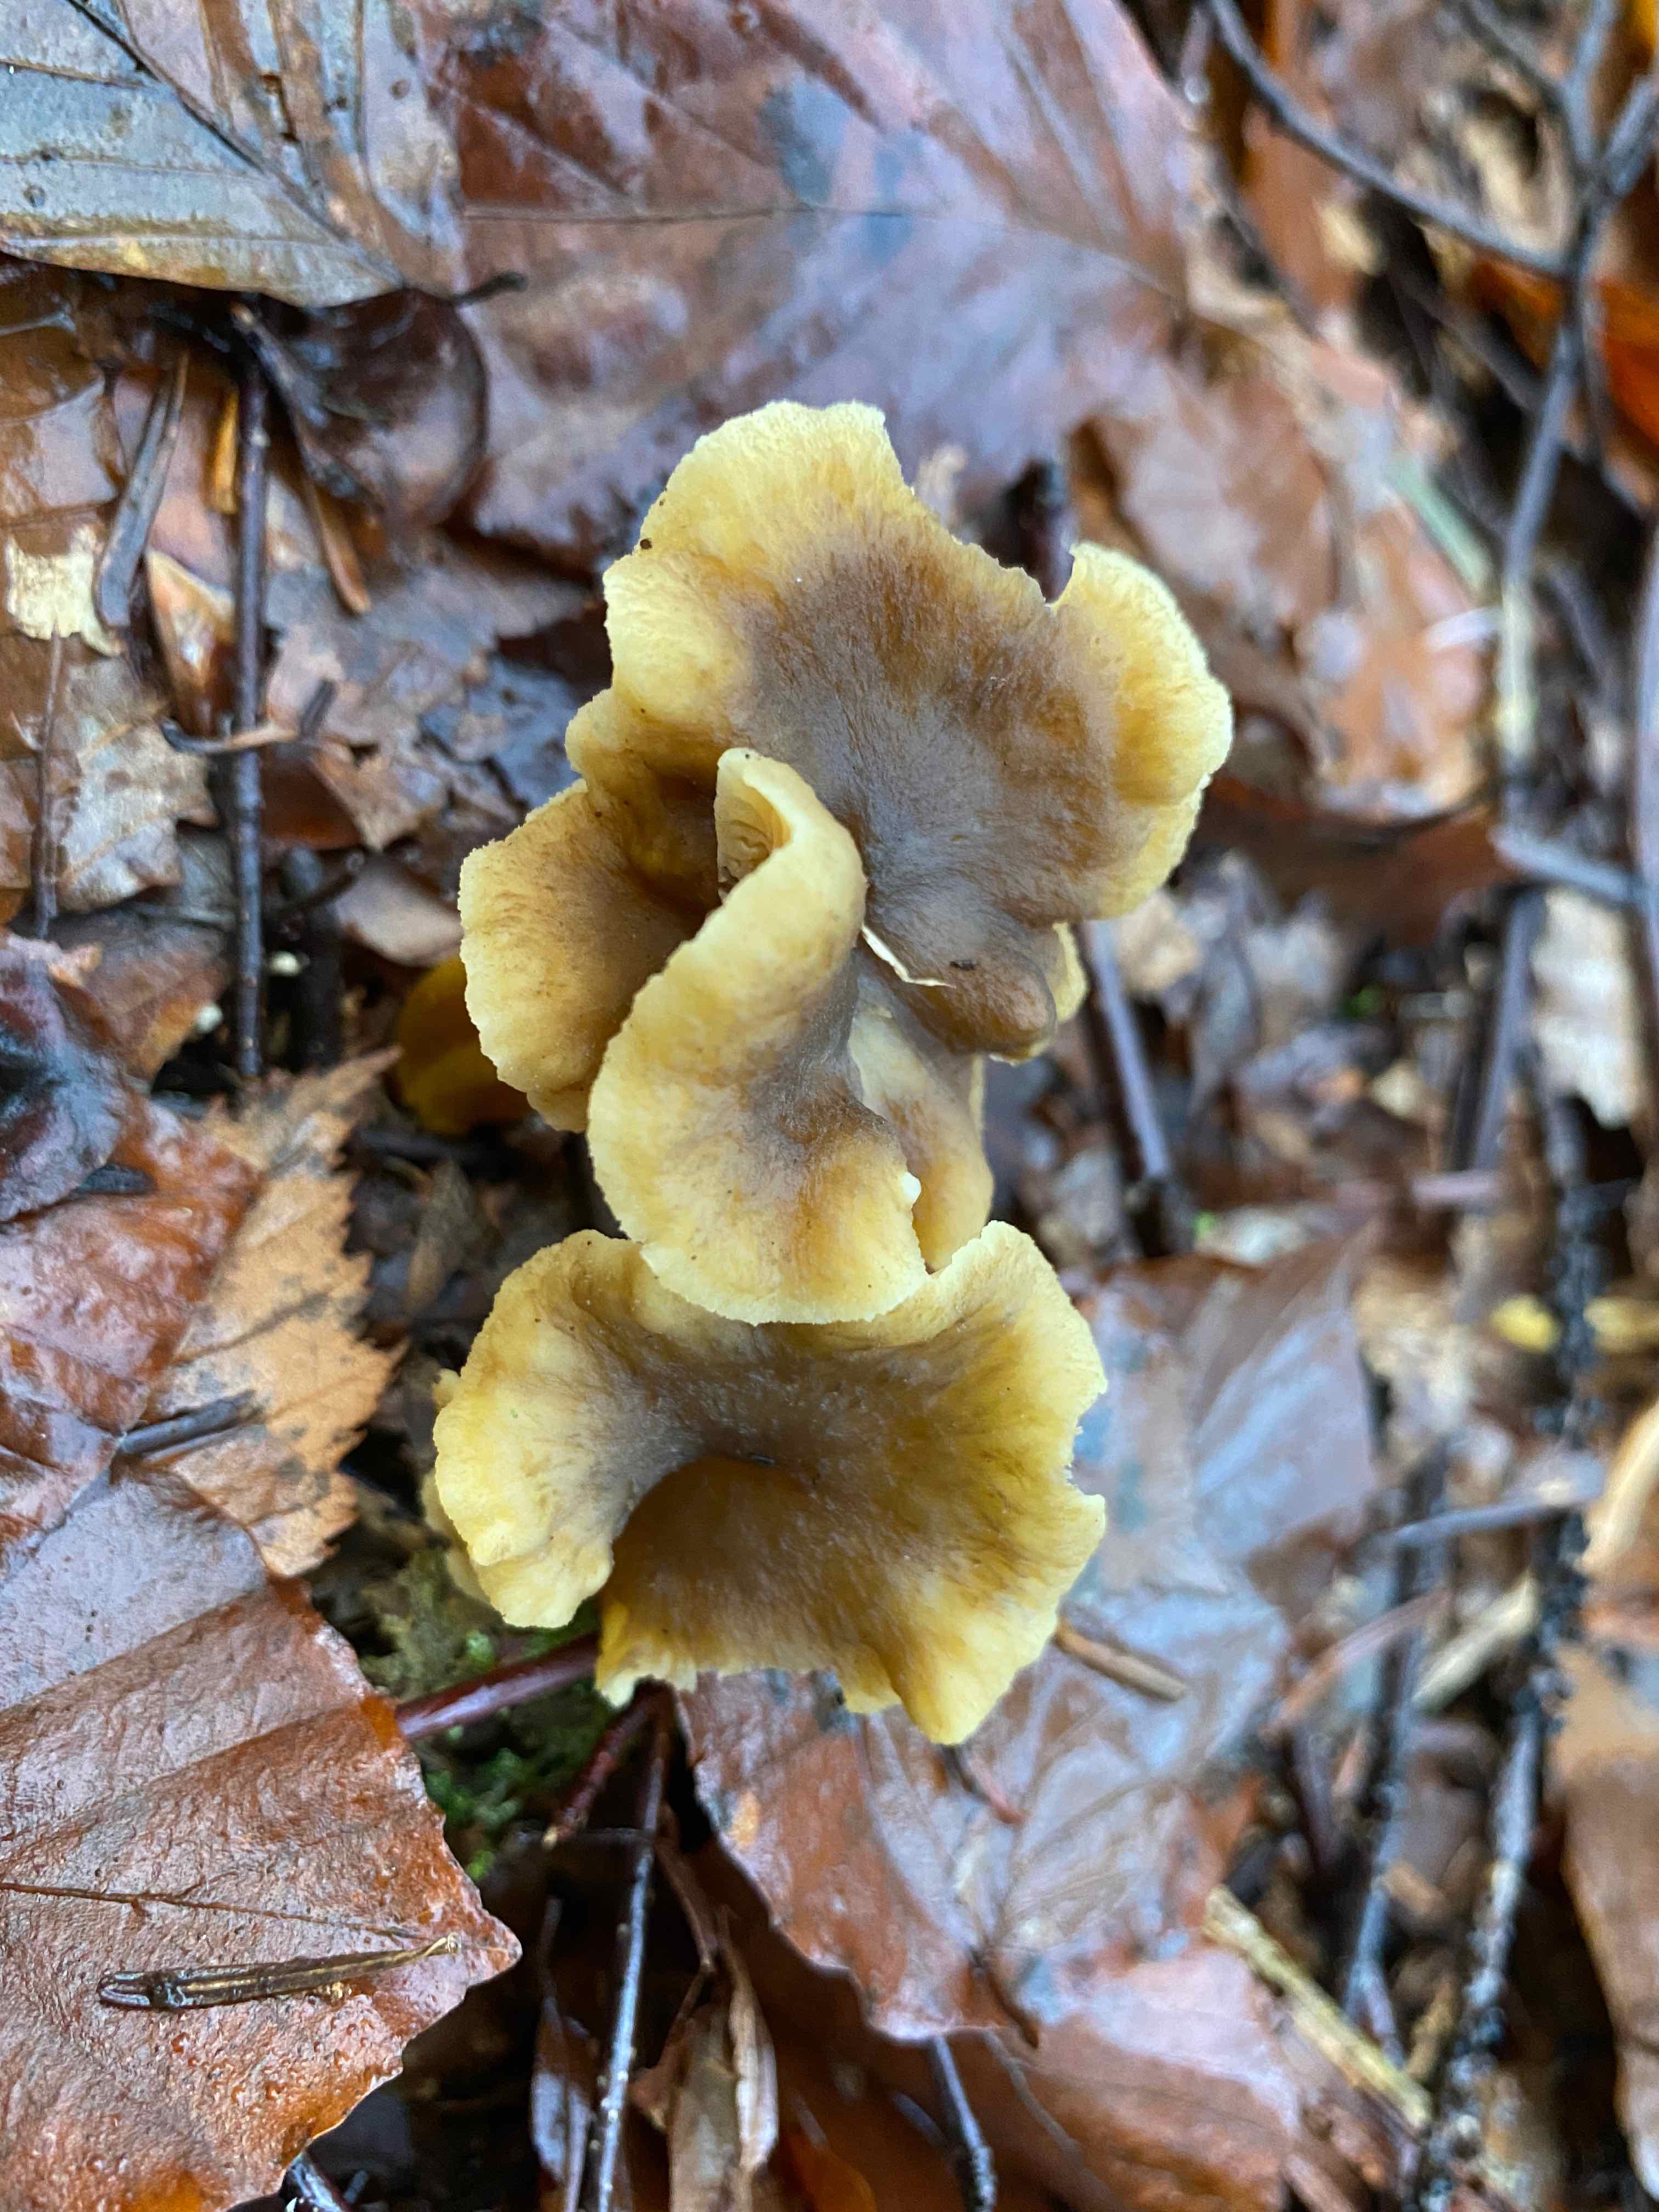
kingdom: Fungi
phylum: Basidiomycota
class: Agaricomycetes
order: Cantharellales
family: Hydnaceae
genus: Craterellus
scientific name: Craterellus tubaeformis
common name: tragt-kantarel
